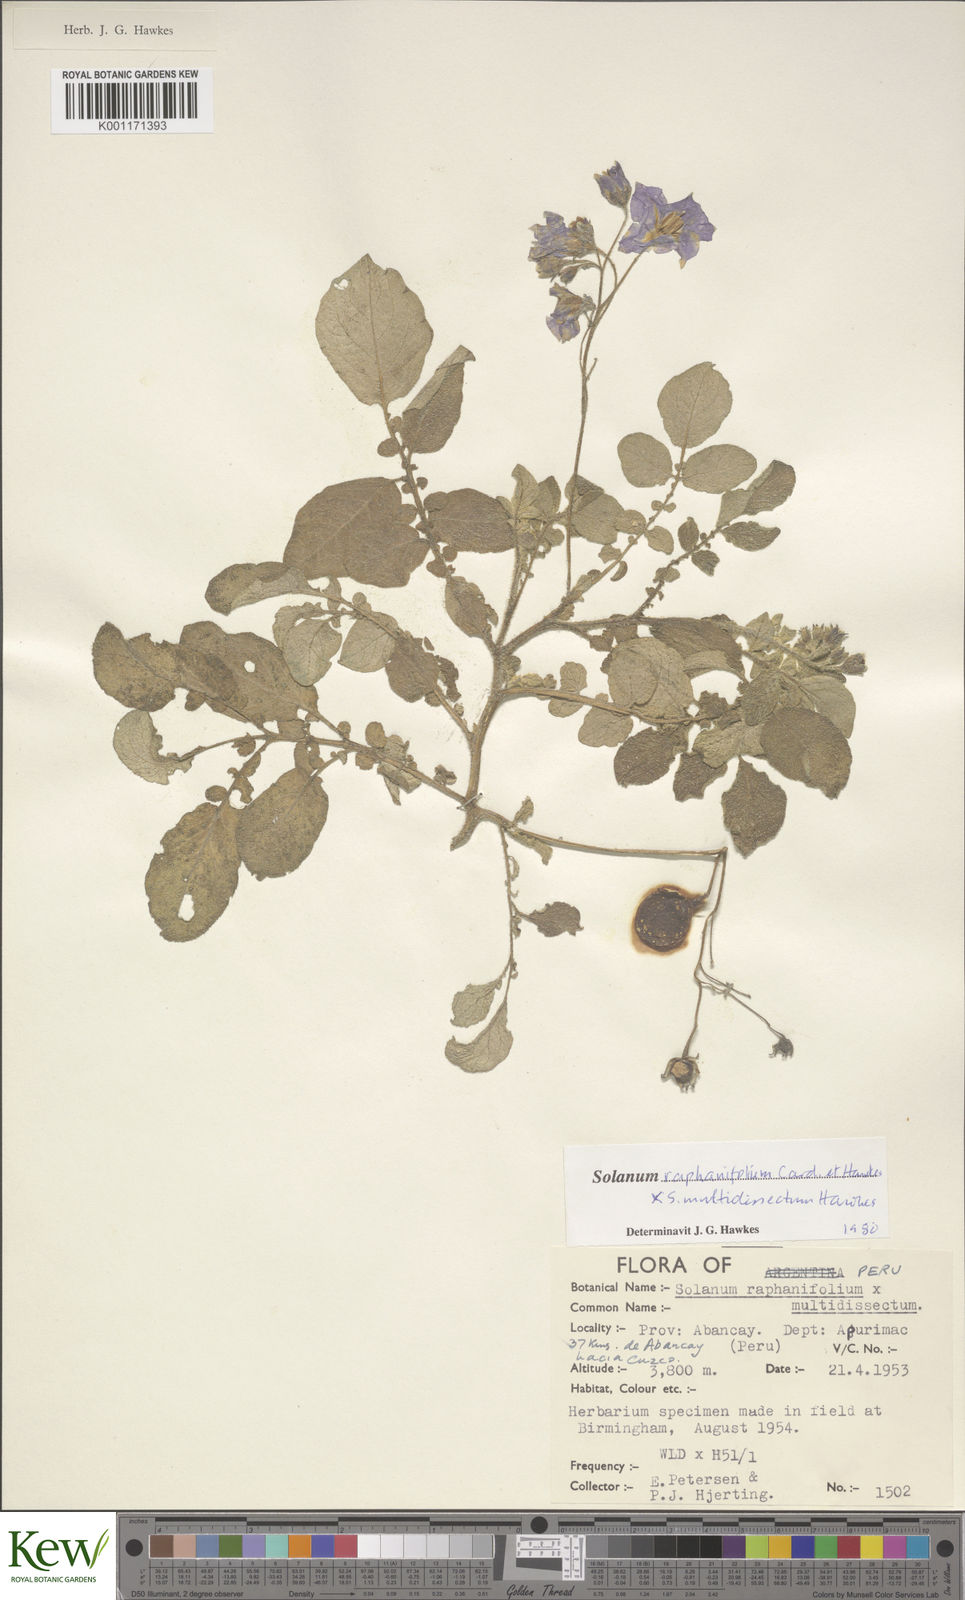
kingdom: Plantae
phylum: Tracheophyta
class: Magnoliopsida
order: Solanales
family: Solanaceae
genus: Solanum
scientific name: Solanum
